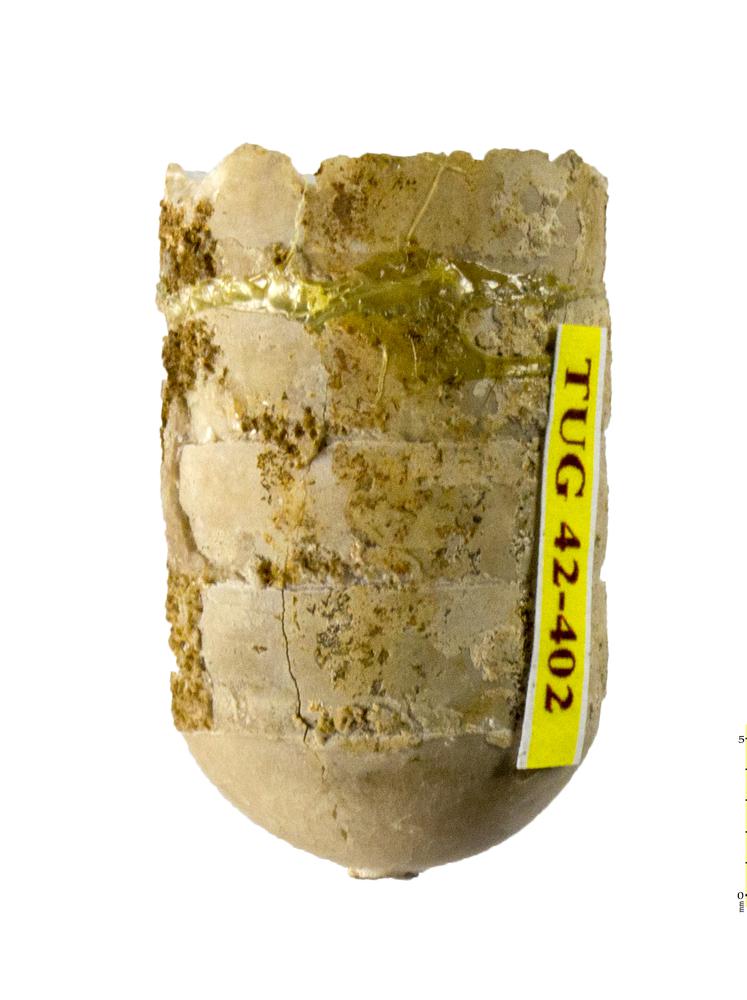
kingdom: Animalia
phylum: Mollusca
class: Cephalopoda
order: Orthocerida
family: Orthoceratidae
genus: Orthoceras
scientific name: Orthoceras regulare
